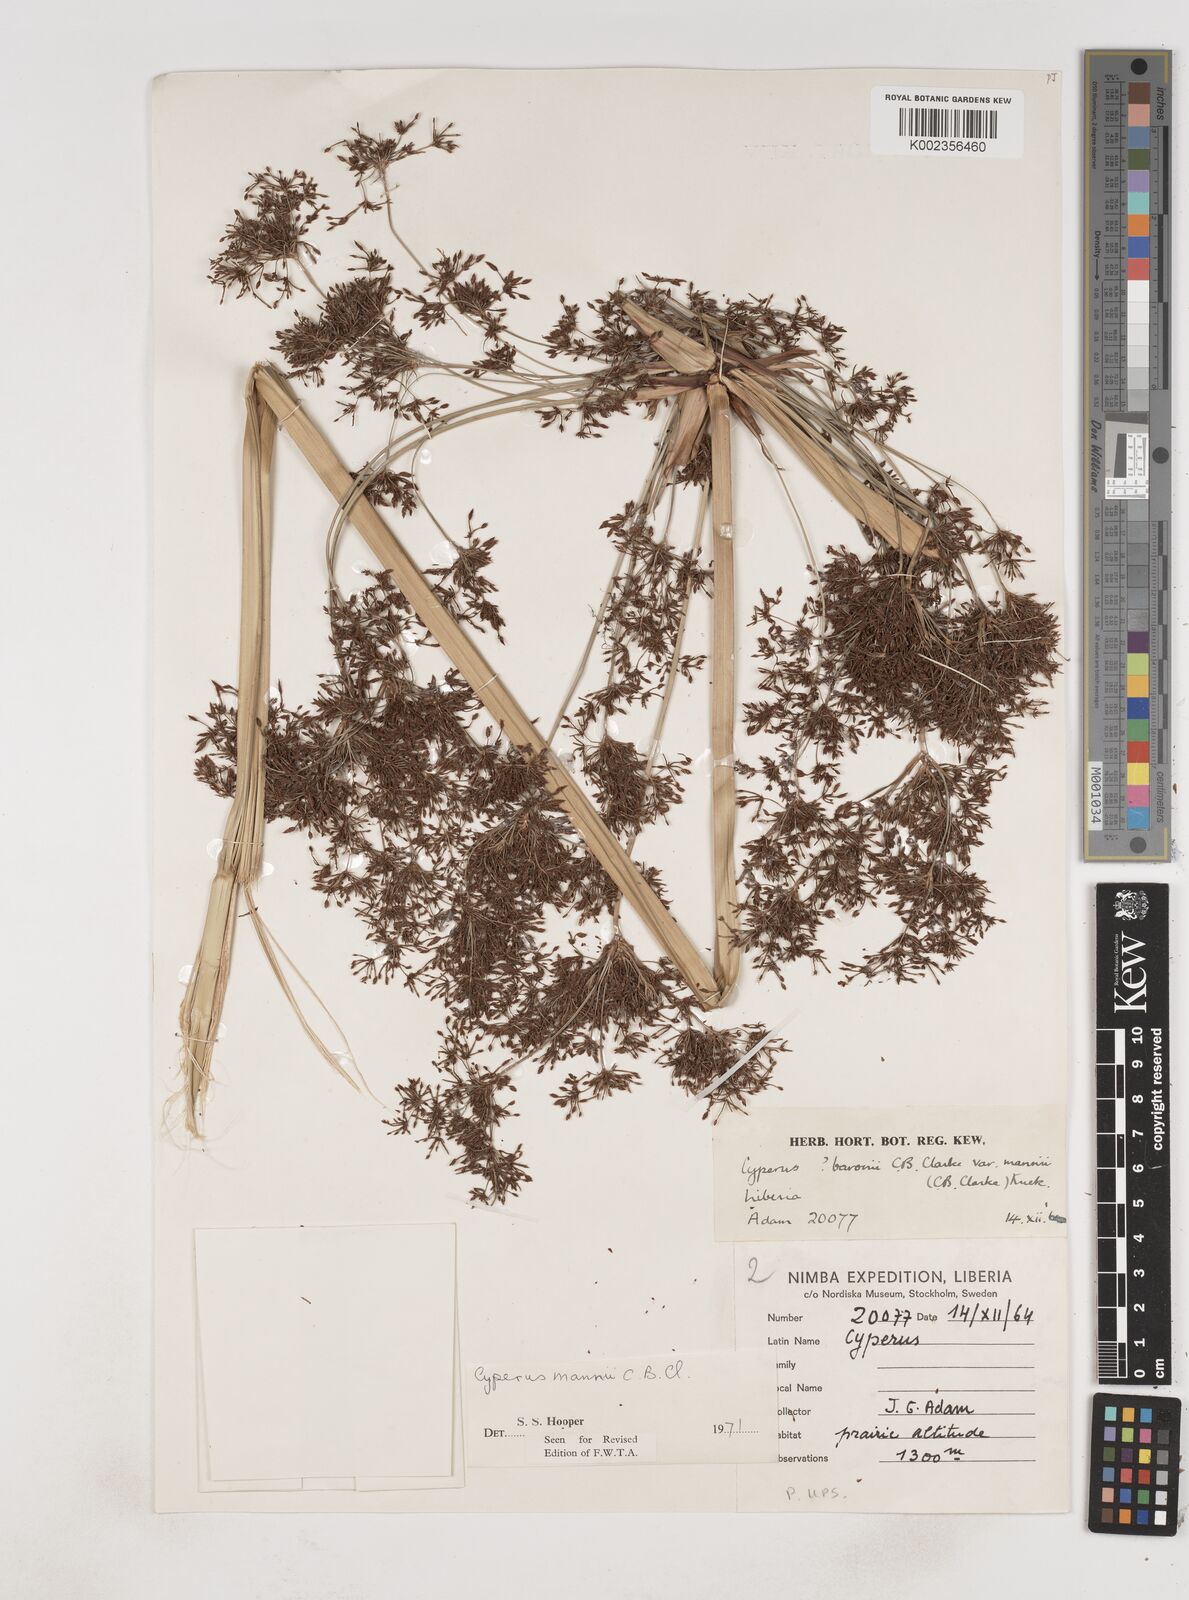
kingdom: Plantae
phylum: Tracheophyta
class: Liliopsida
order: Poales
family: Cyperaceae
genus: Cyperus
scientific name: Cyperus baronii
